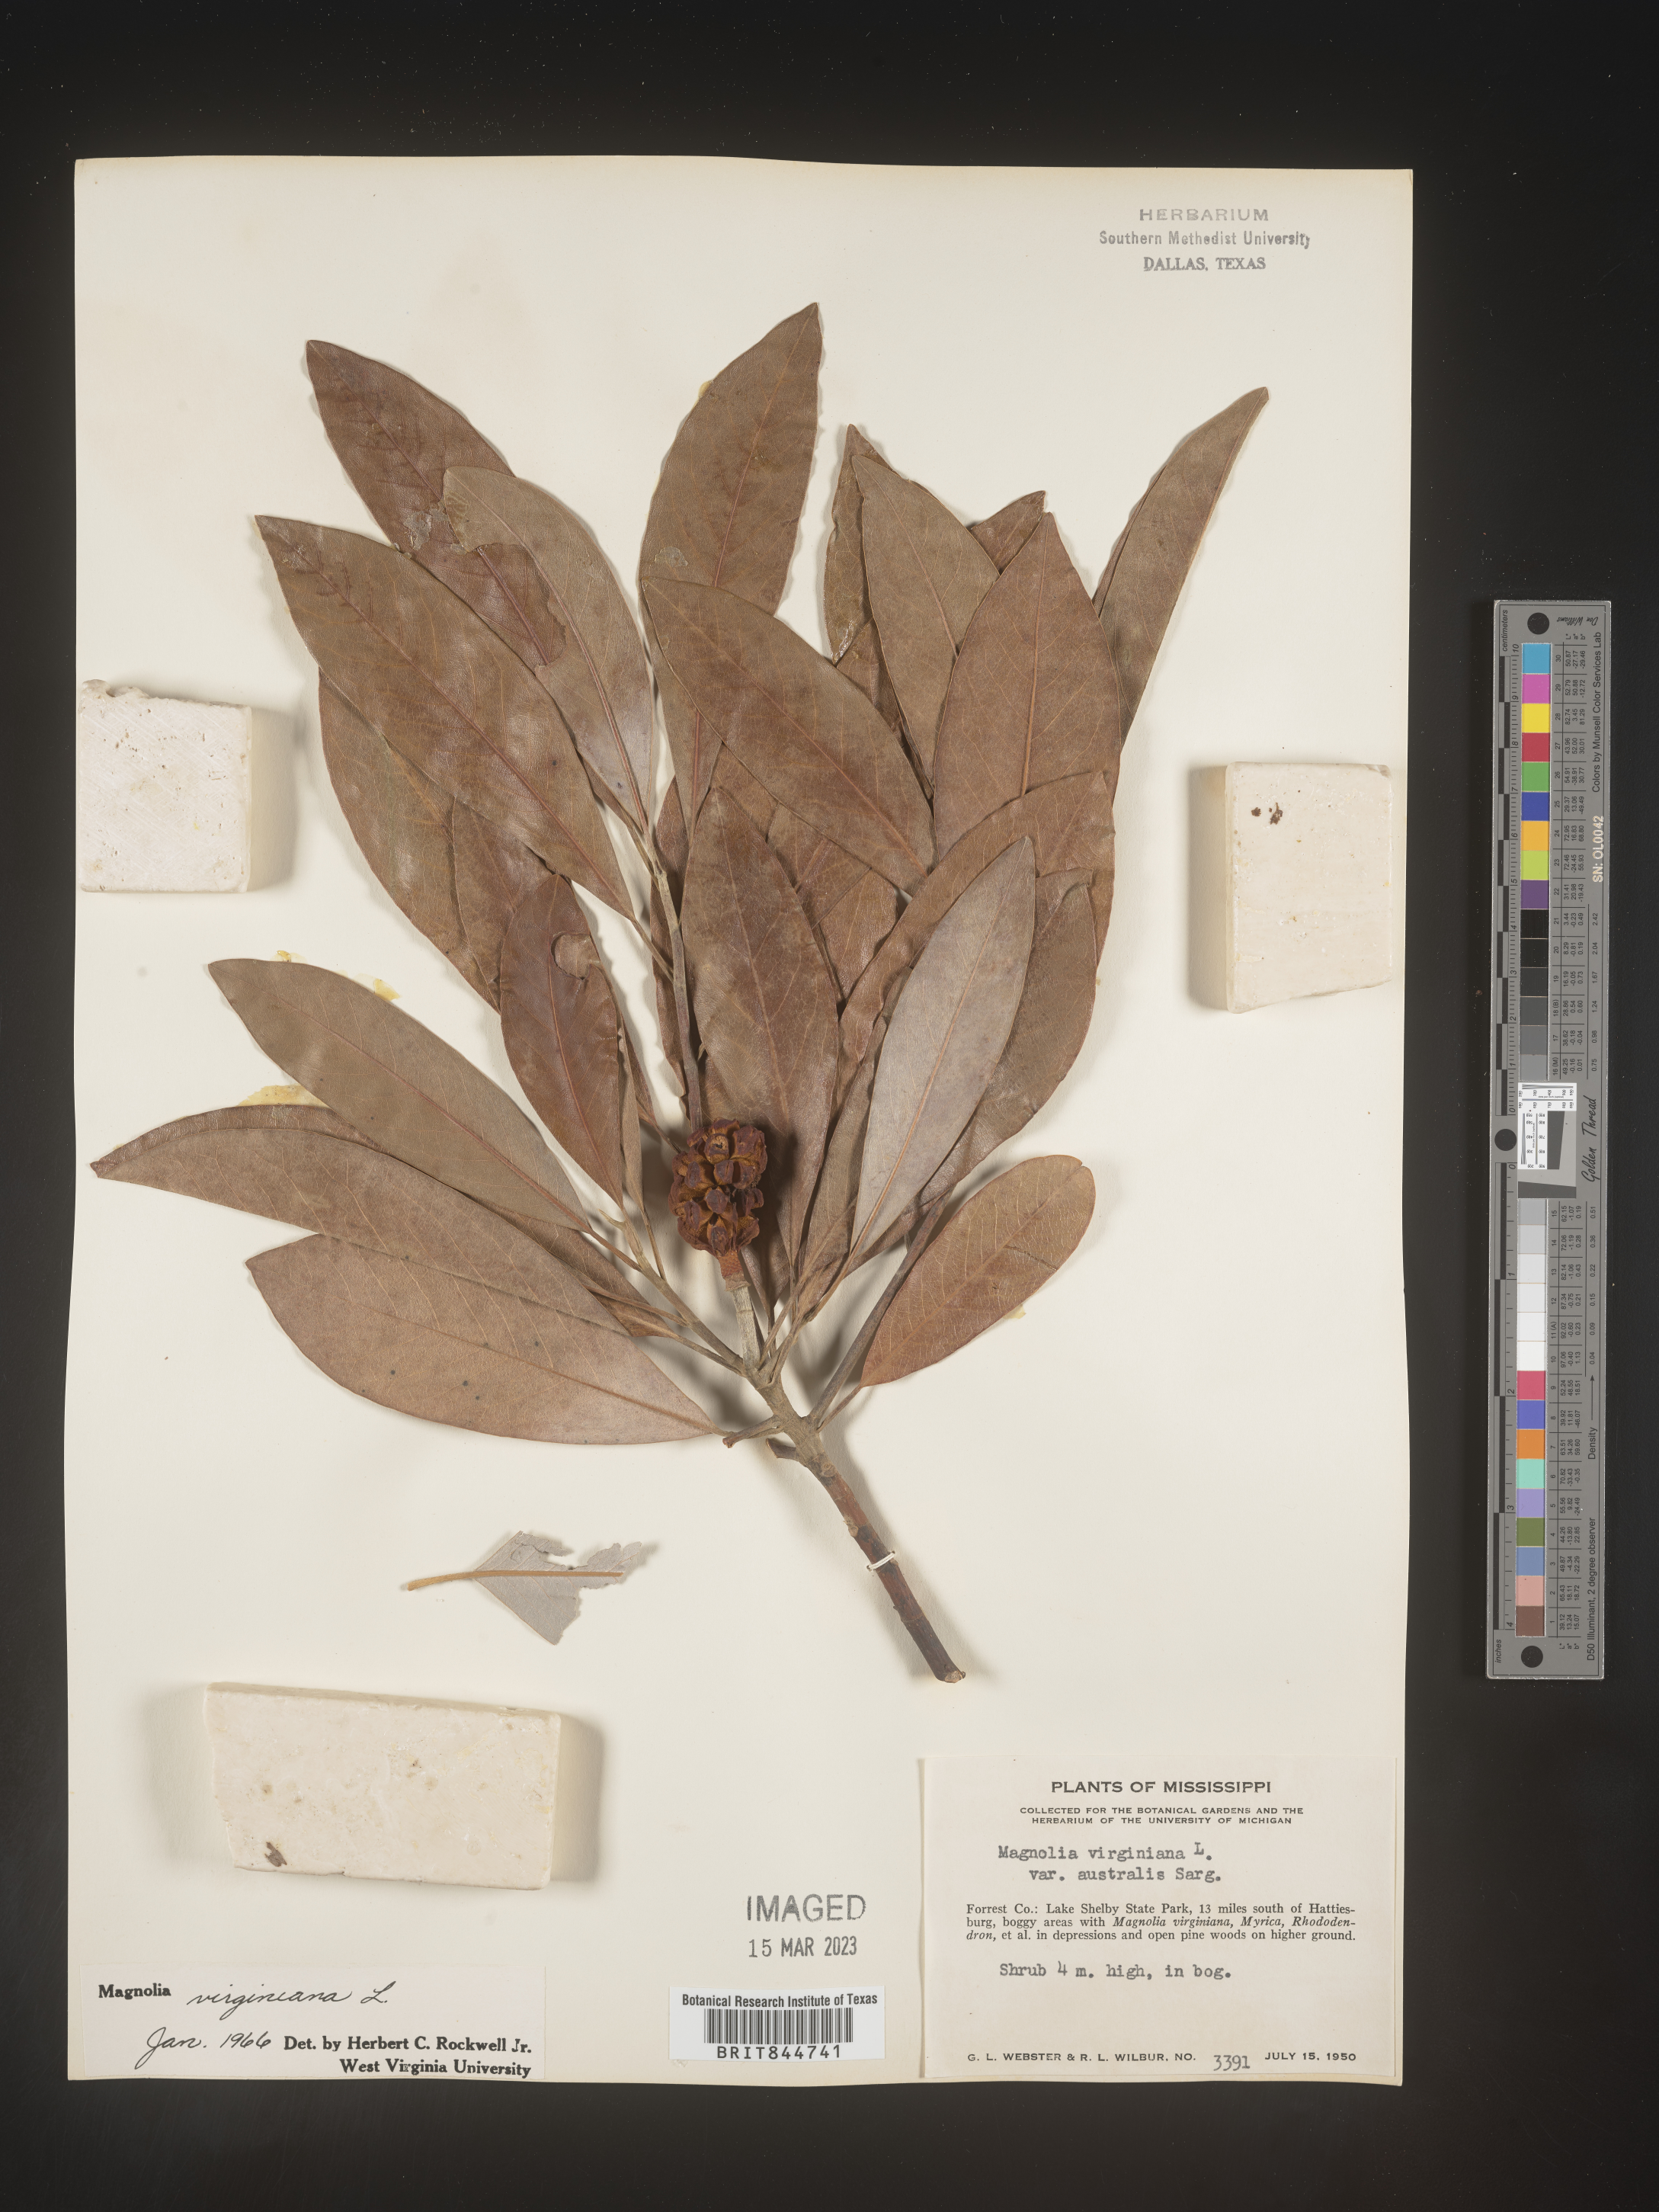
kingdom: Plantae
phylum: Tracheophyta
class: Magnoliopsida
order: Magnoliales
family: Magnoliaceae
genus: Magnolia
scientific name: Magnolia virginiana
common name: Swamp bay
